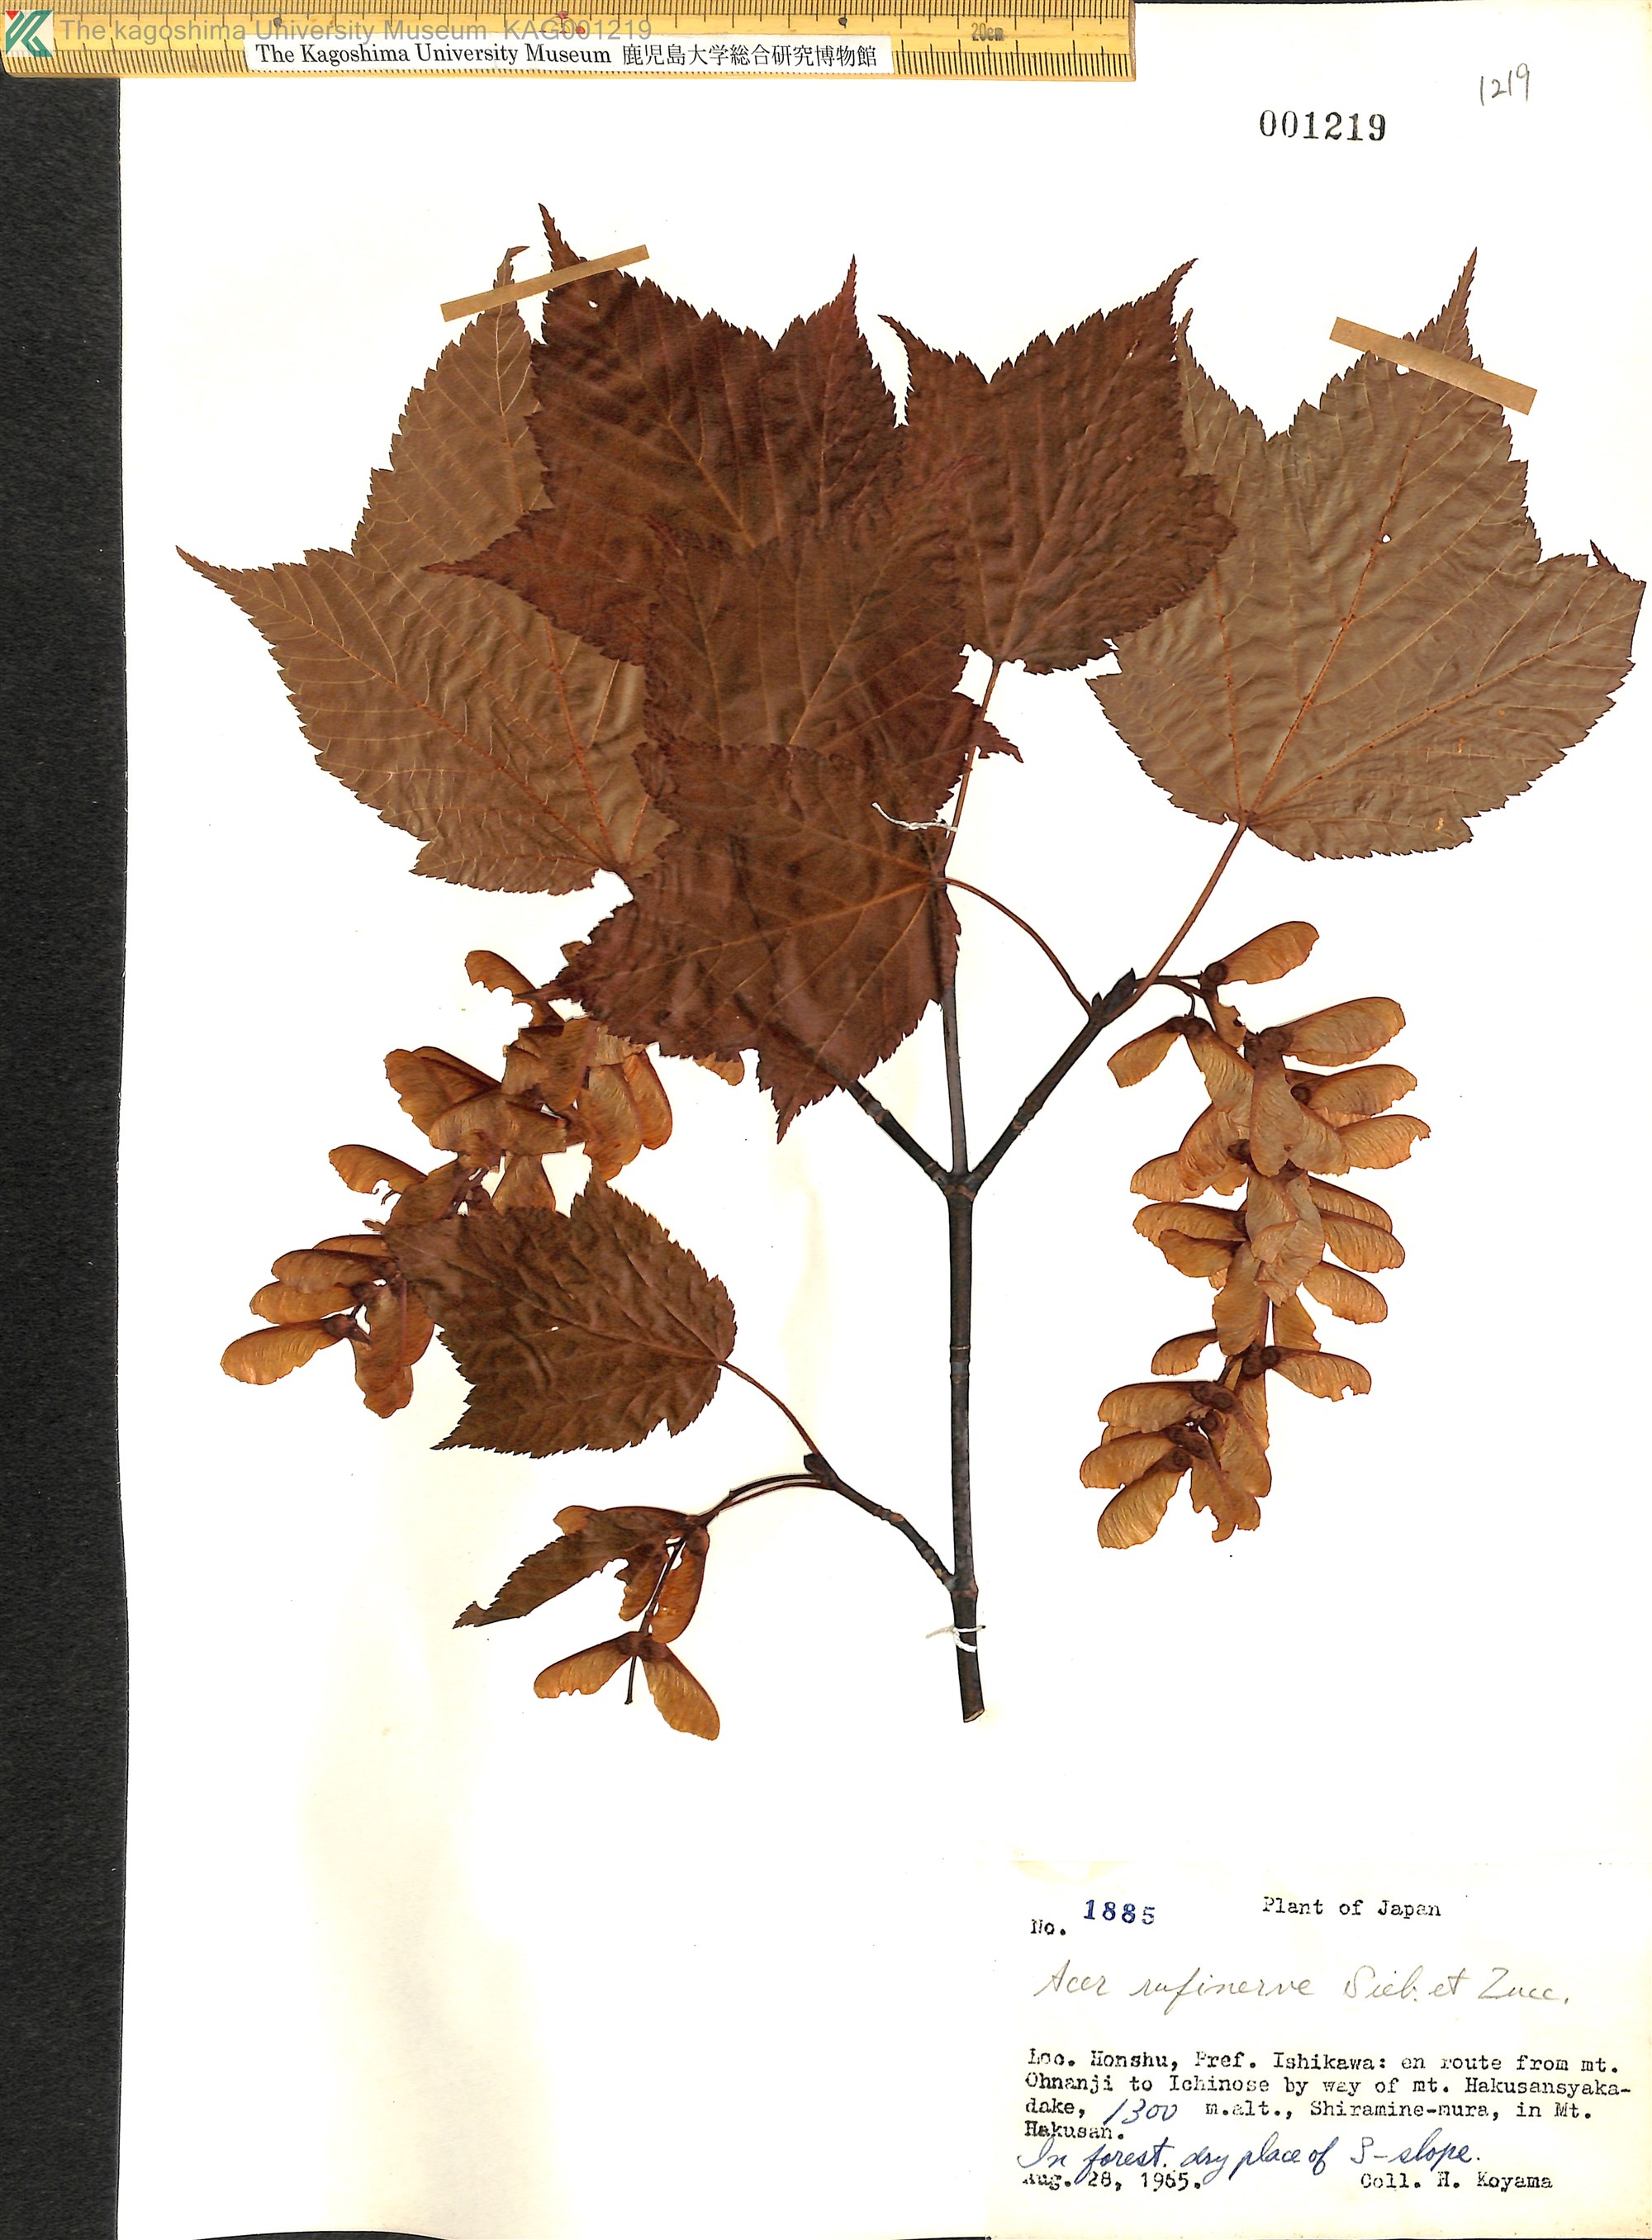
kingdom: Plantae
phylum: Tracheophyta
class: Magnoliopsida
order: Sapindales
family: Sapindaceae
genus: Acer
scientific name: Acer rufinerve
